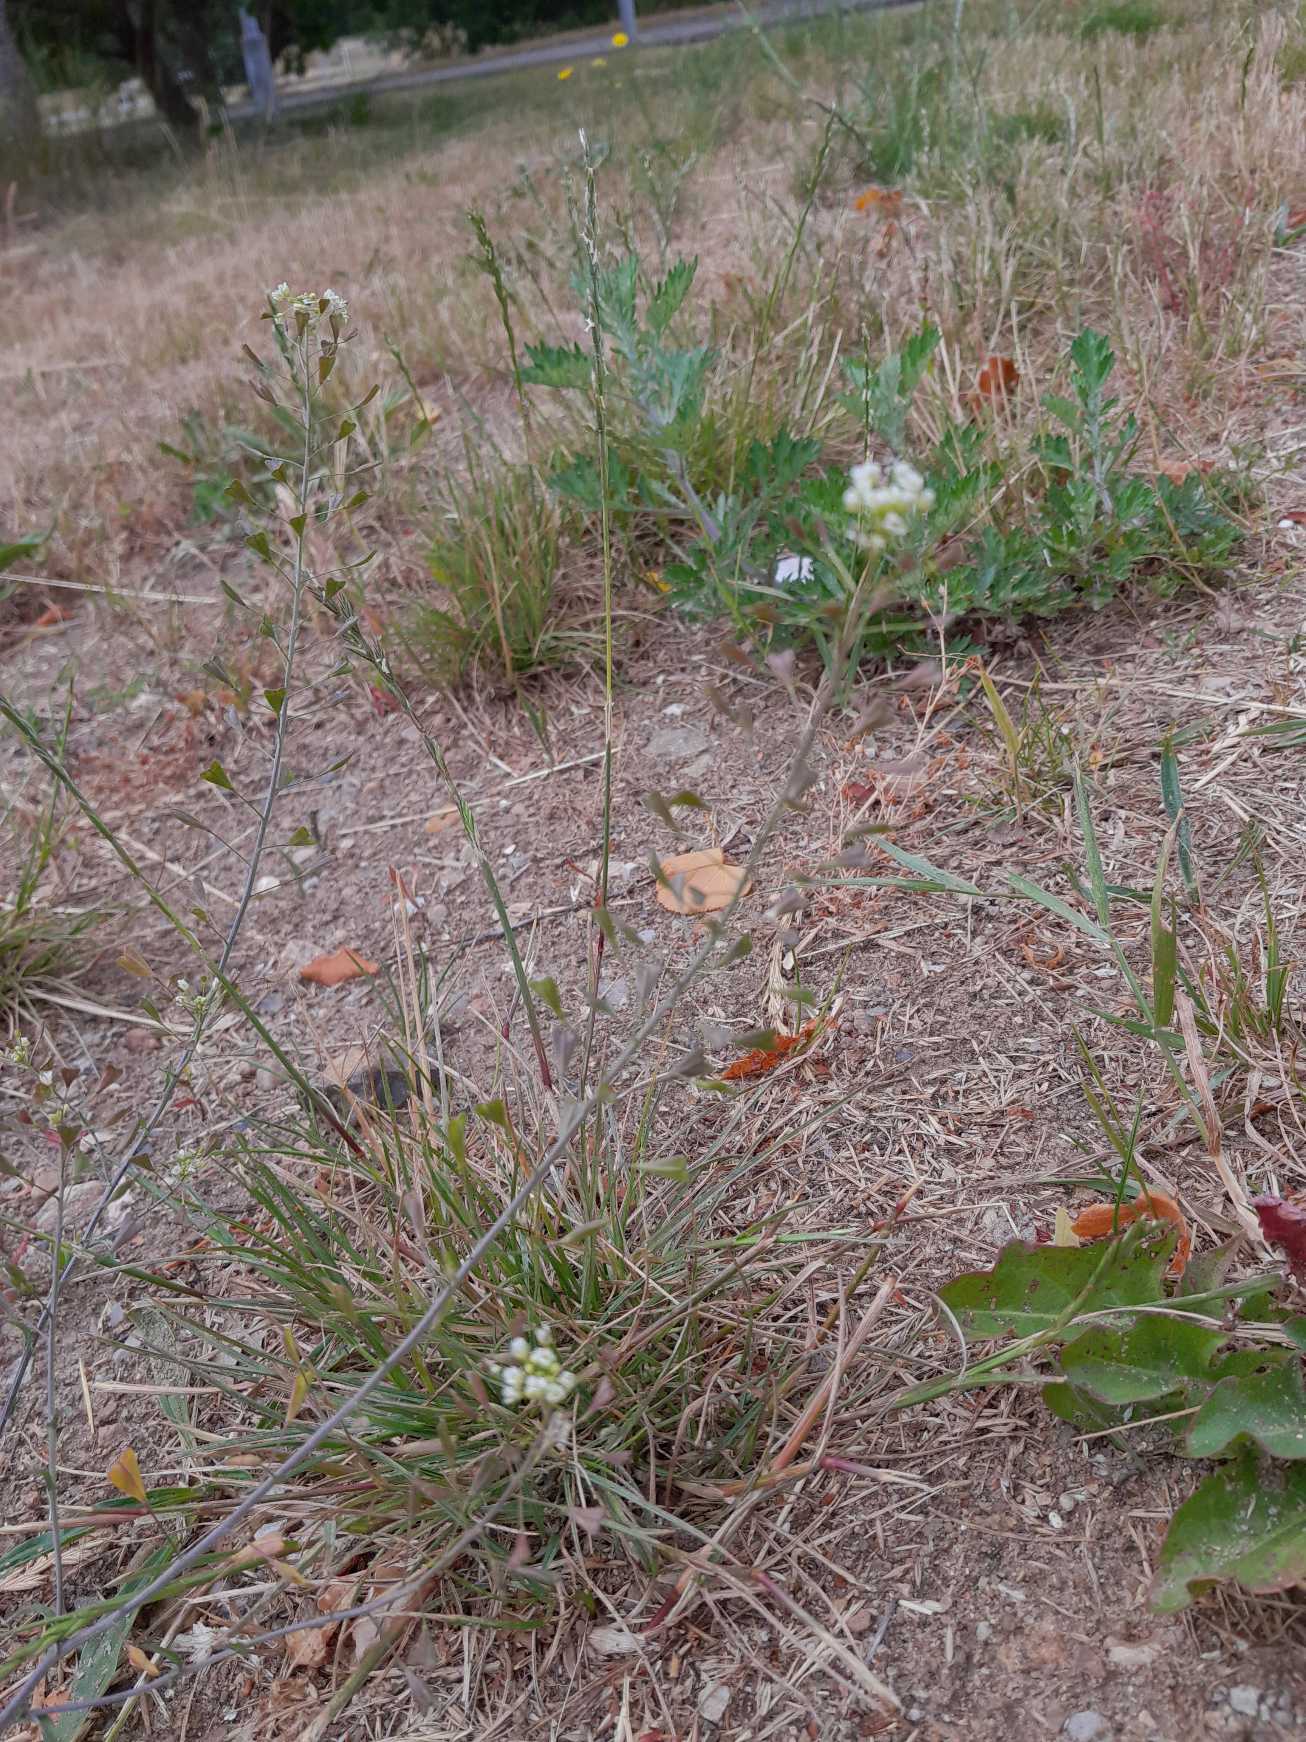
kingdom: Plantae
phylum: Tracheophyta
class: Magnoliopsida
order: Brassicales
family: Brassicaceae
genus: Capsella
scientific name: Capsella bursa-pastoris
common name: Hyrdetaske
